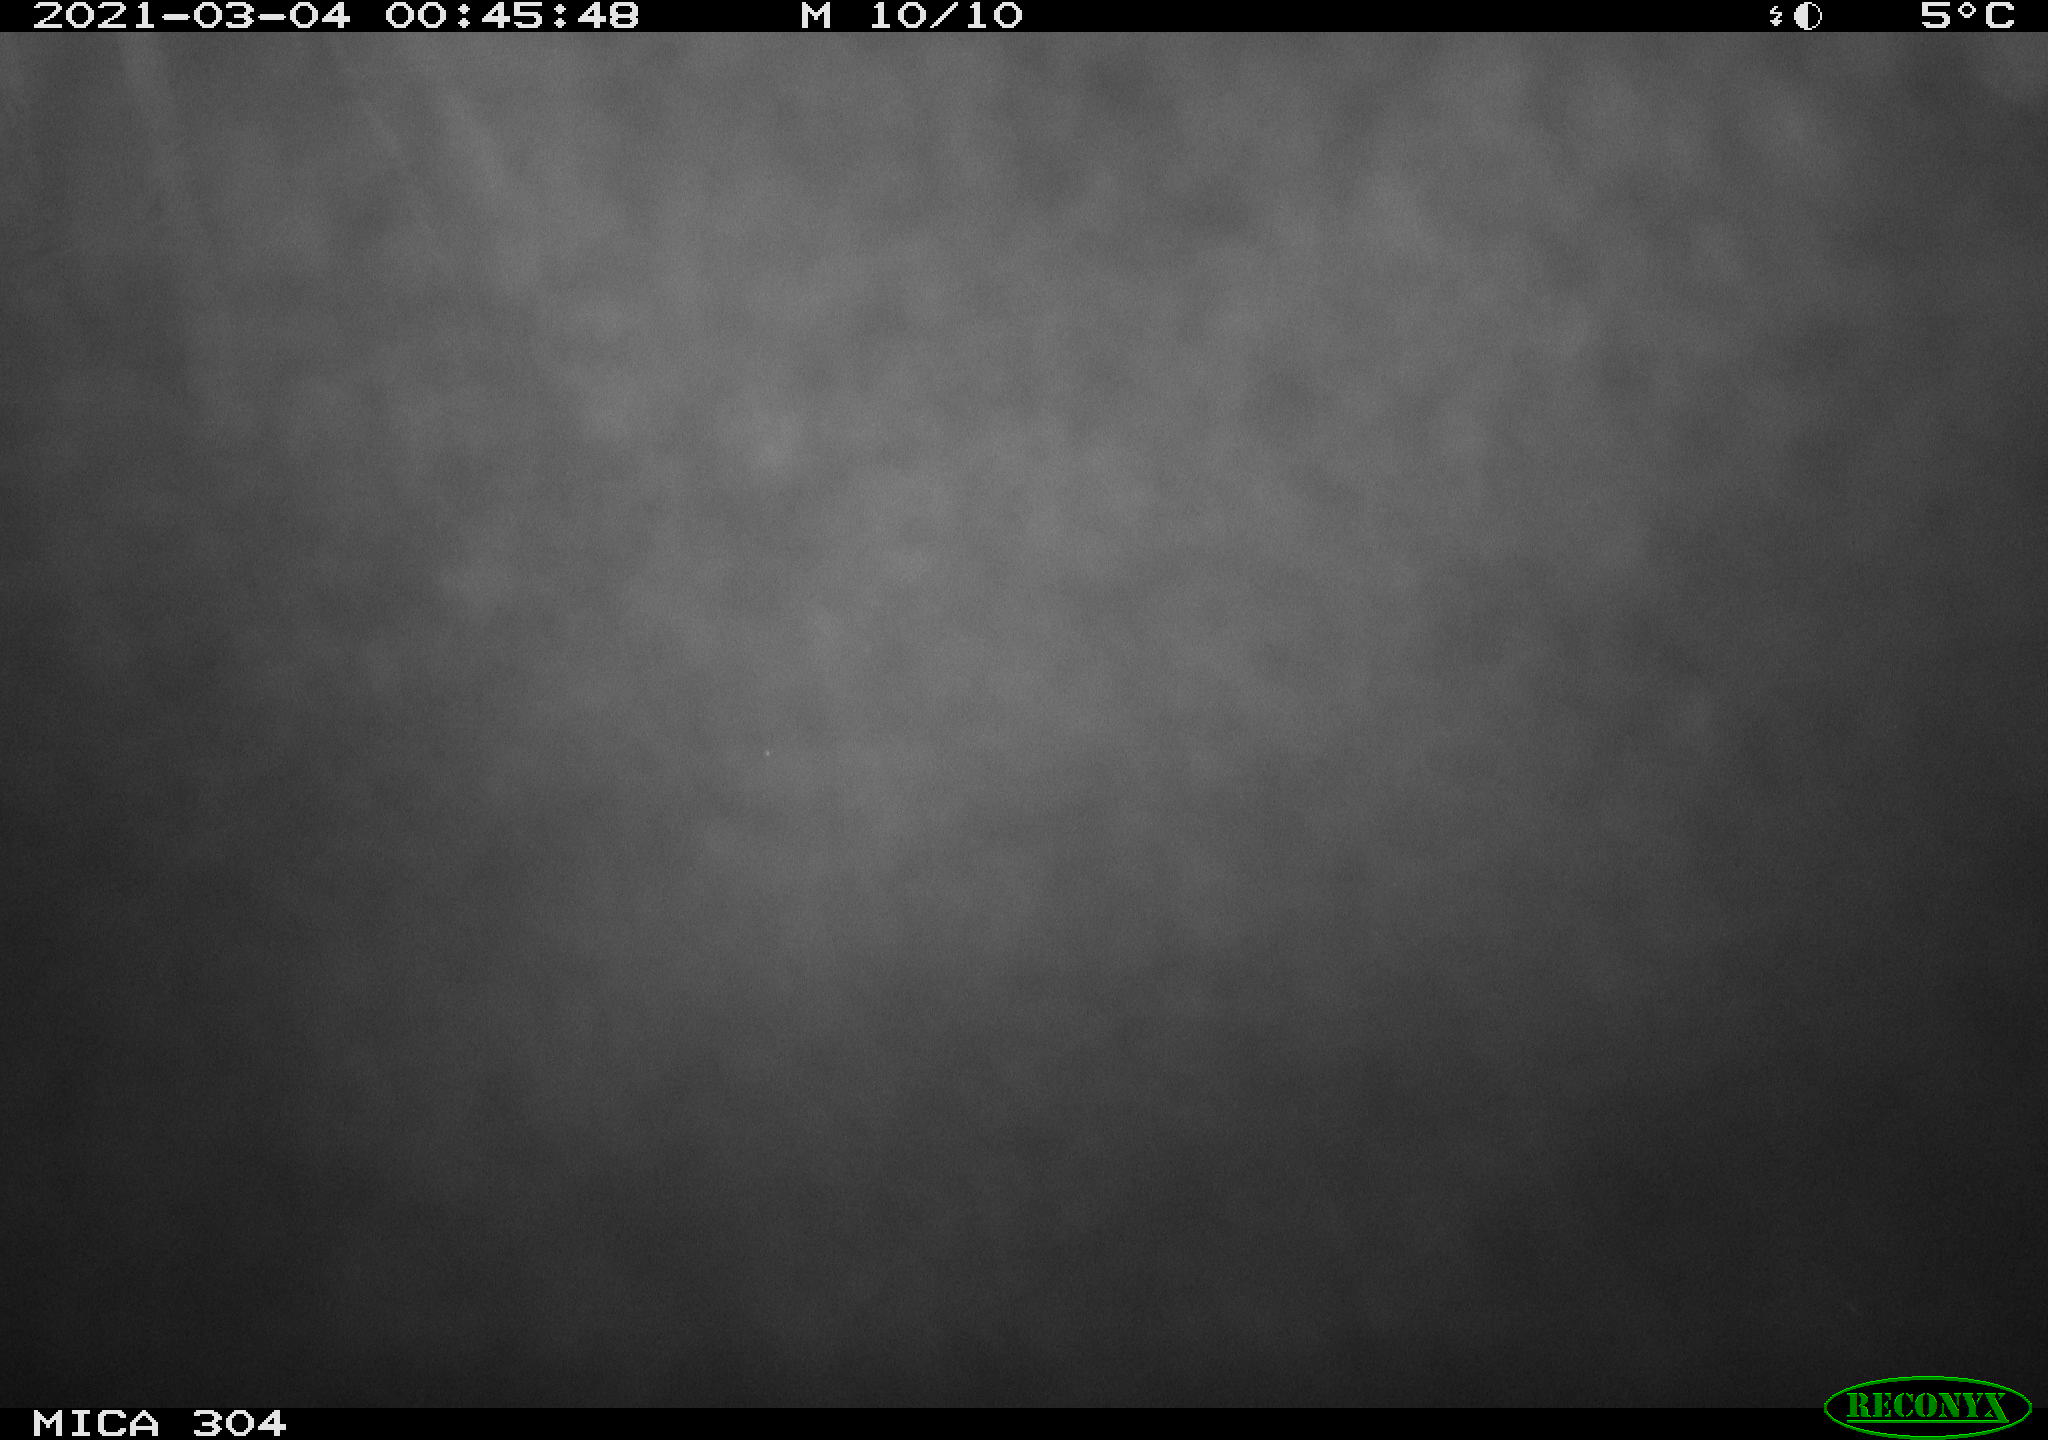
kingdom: Animalia
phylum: Chordata
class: Mammalia
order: Rodentia
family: Muridae
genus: Rattus
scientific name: Rattus norvegicus
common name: Brown rat
